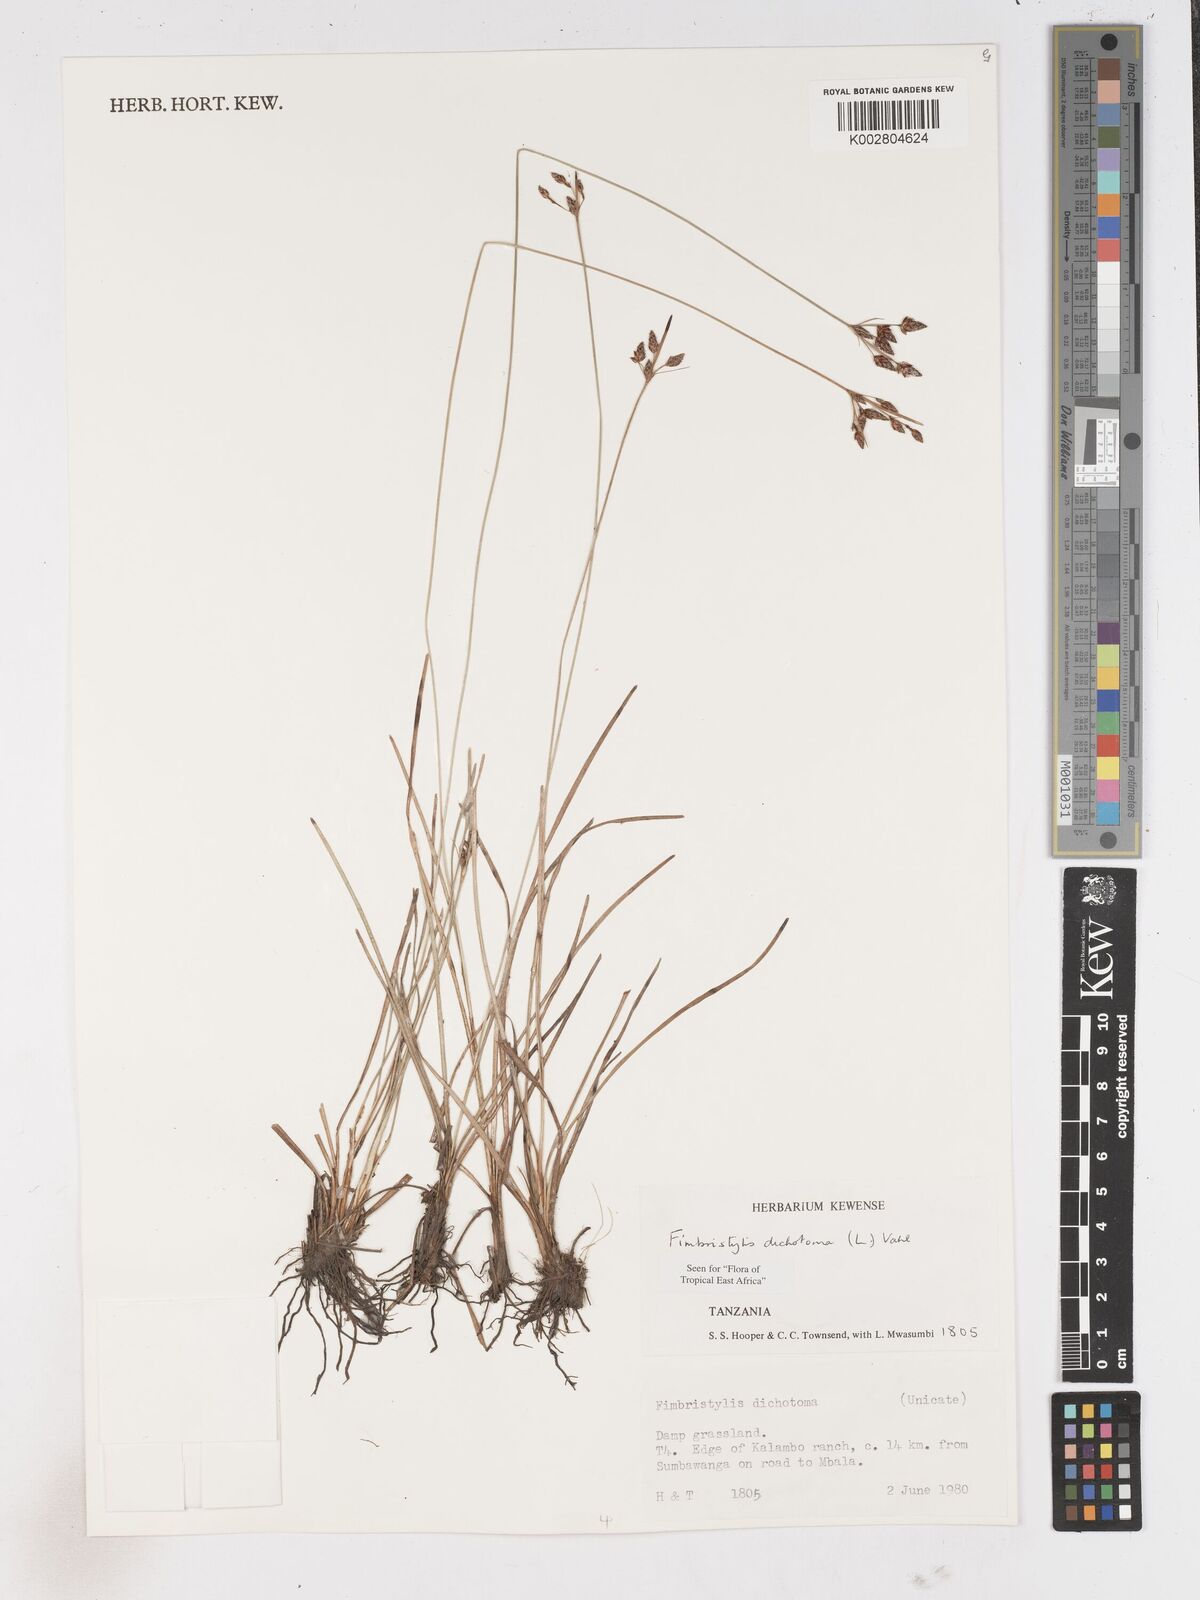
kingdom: Plantae
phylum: Tracheophyta
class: Liliopsida
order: Poales
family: Cyperaceae
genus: Fimbristylis
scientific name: Fimbristylis dichotoma
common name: Forked fimbry
